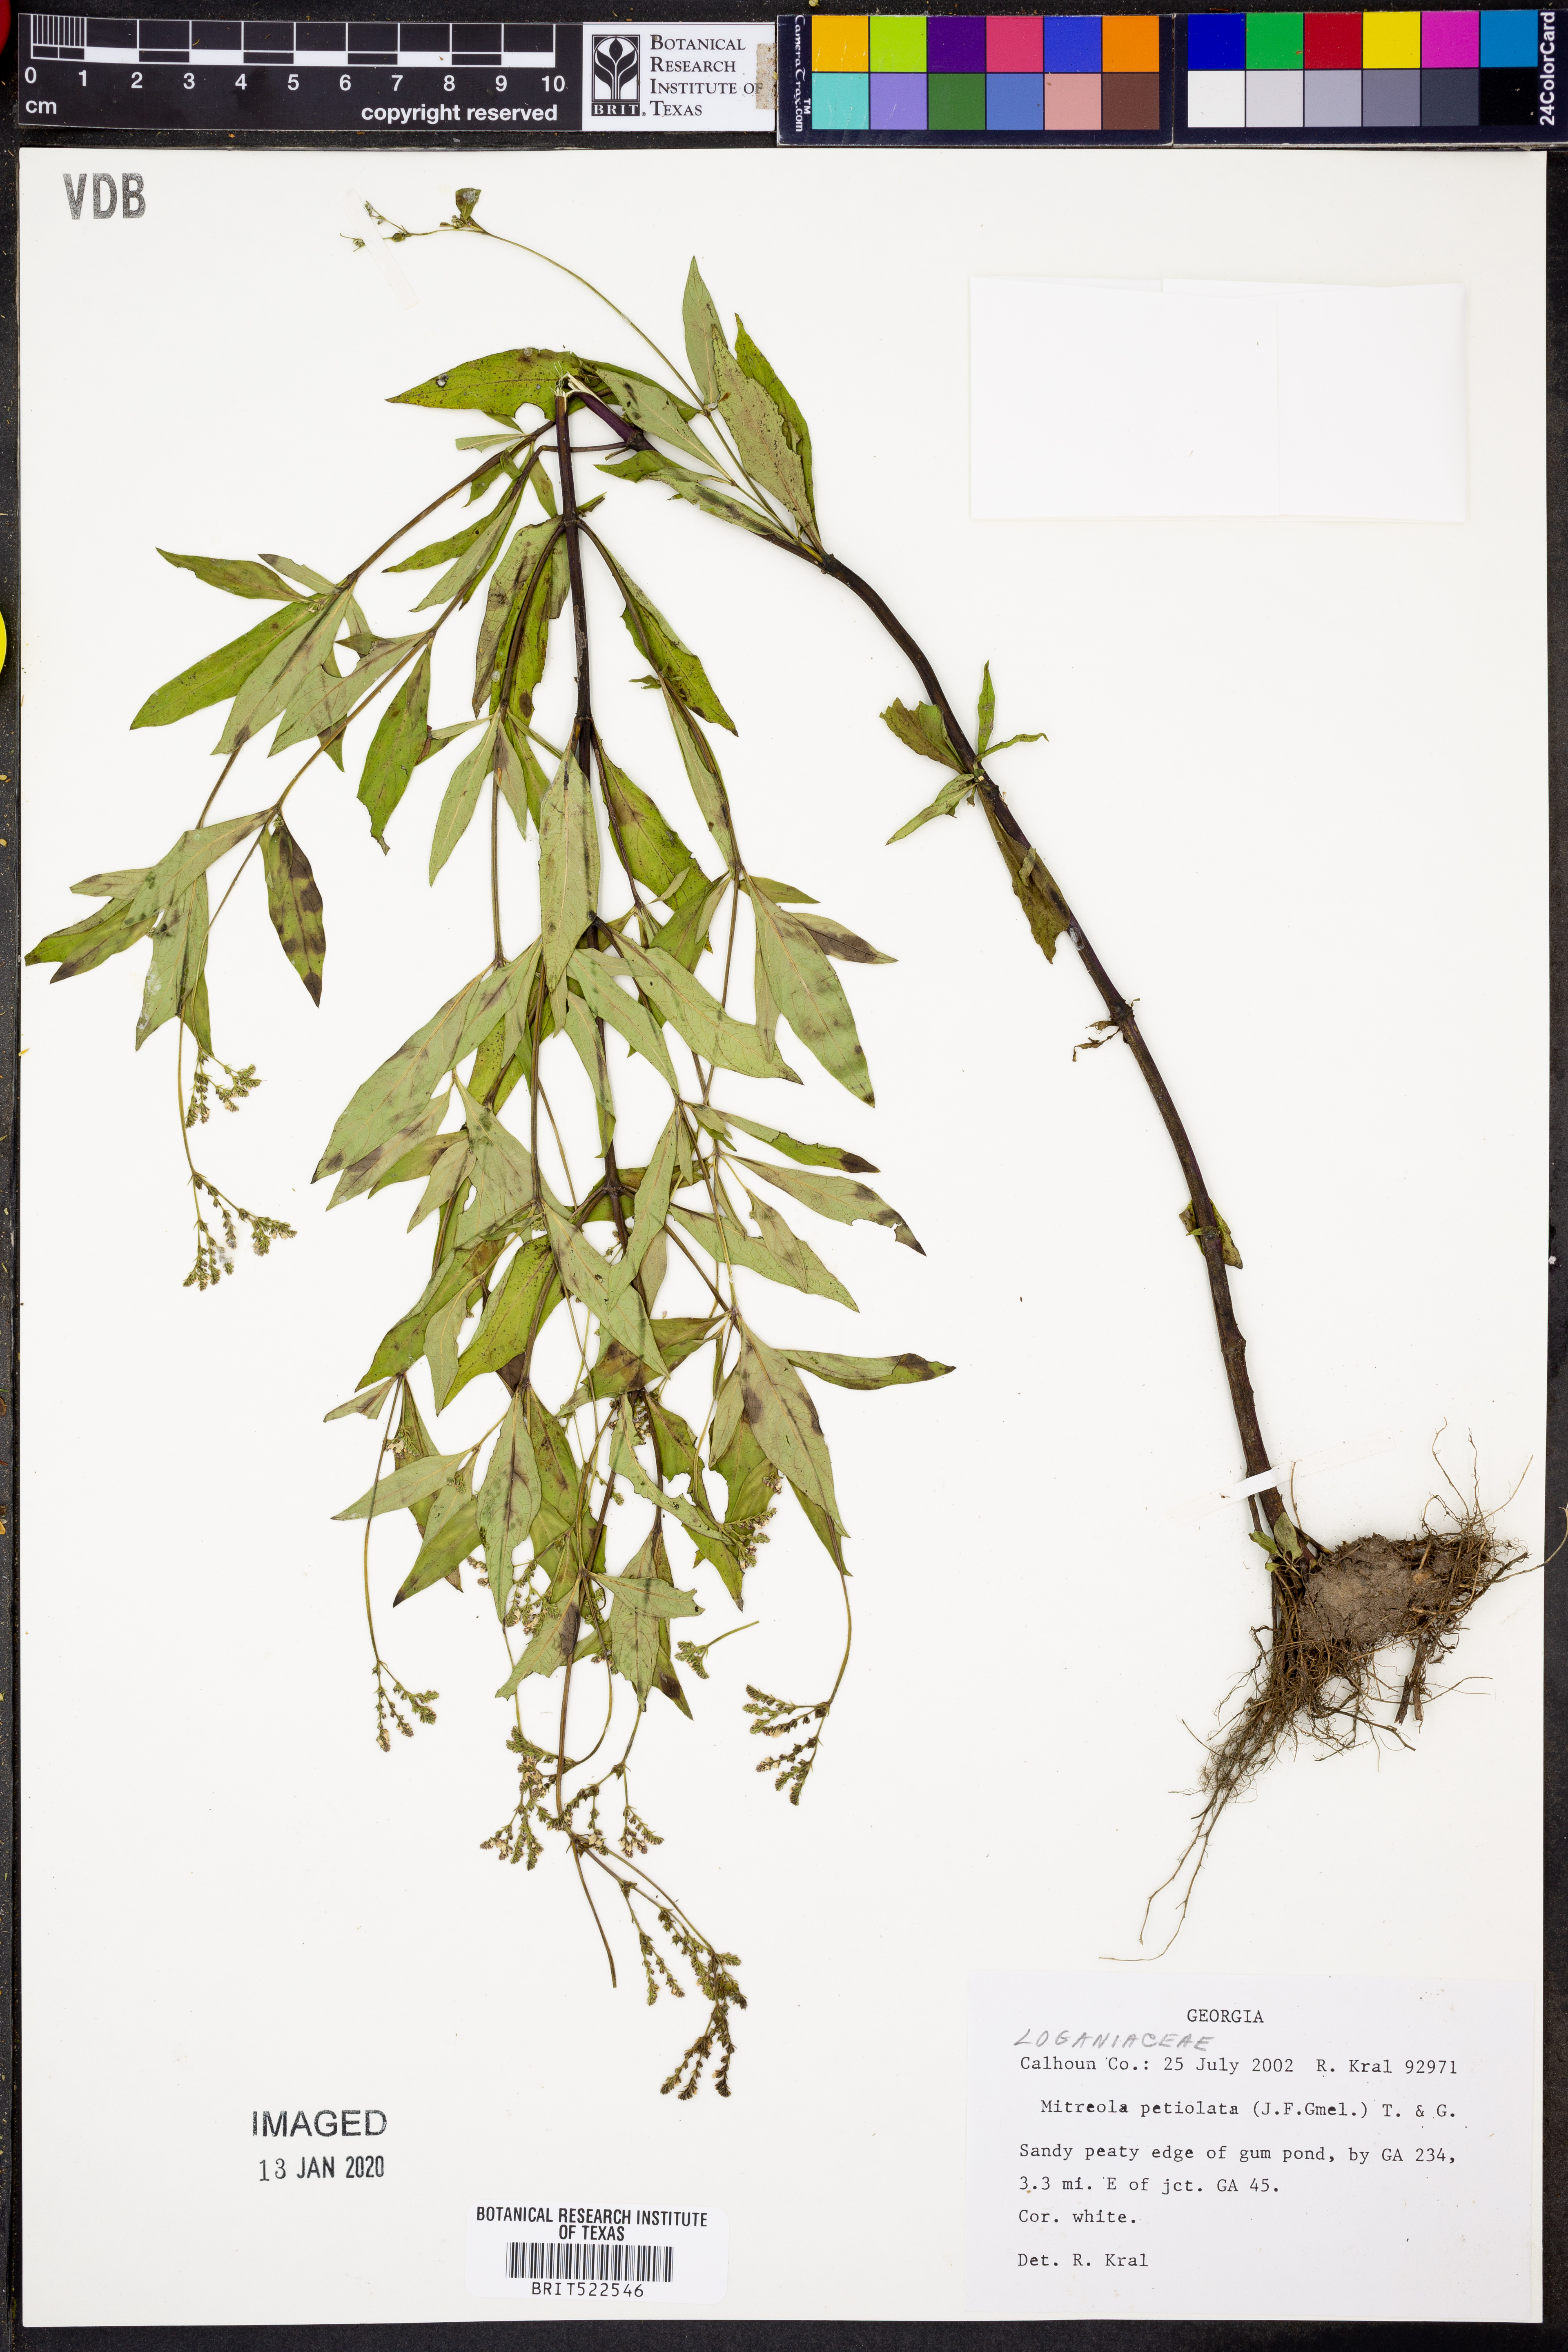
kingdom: Plantae
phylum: Tracheophyta
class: Magnoliopsida
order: Gentianales
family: Loganiaceae
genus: Mitreola
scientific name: Mitreola petiolata
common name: Lax hornpod
